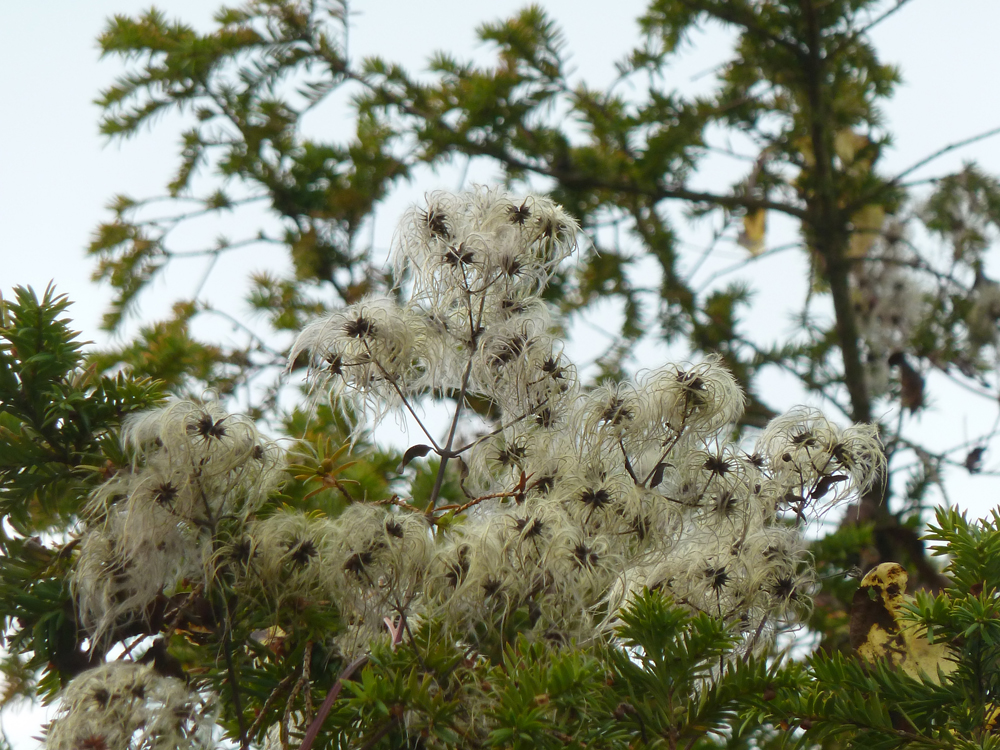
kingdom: Plantae
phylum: Tracheophyta
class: Magnoliopsida
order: Ranunculales
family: Ranunculaceae
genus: Clematis
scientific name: Clematis vitalba
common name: Evergreen clematis
